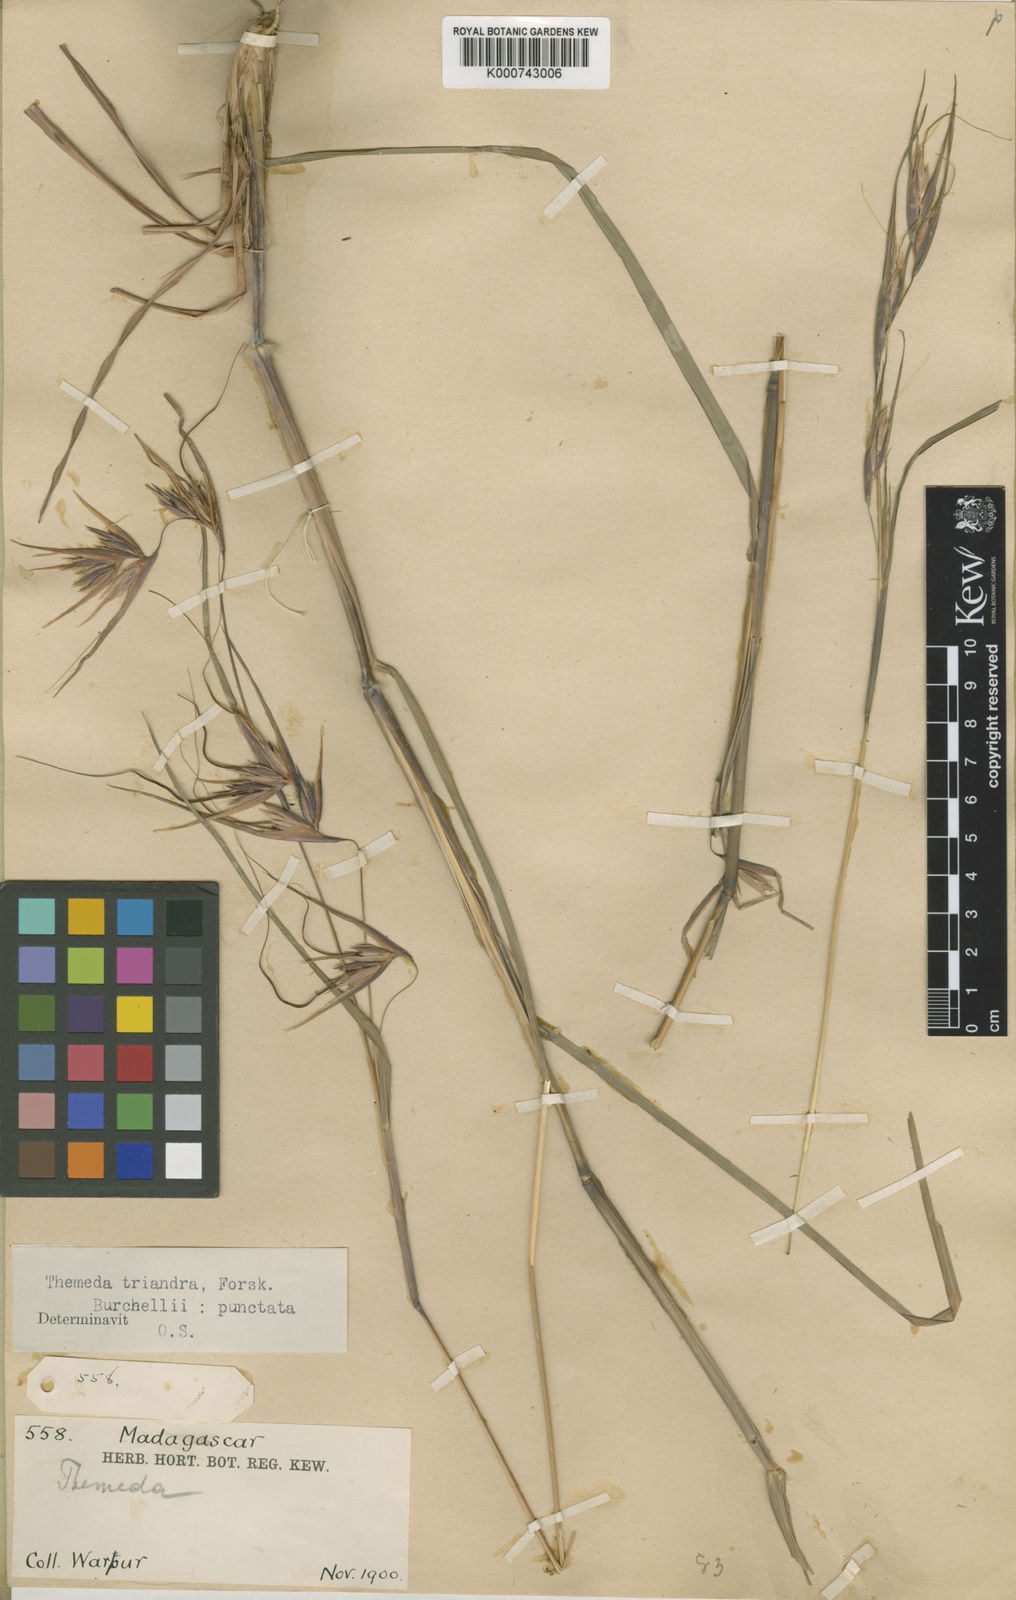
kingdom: Plantae
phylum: Tracheophyta
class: Liliopsida
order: Poales
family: Poaceae
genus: Themeda
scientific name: Themeda triandra
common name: Kangaroo grass
